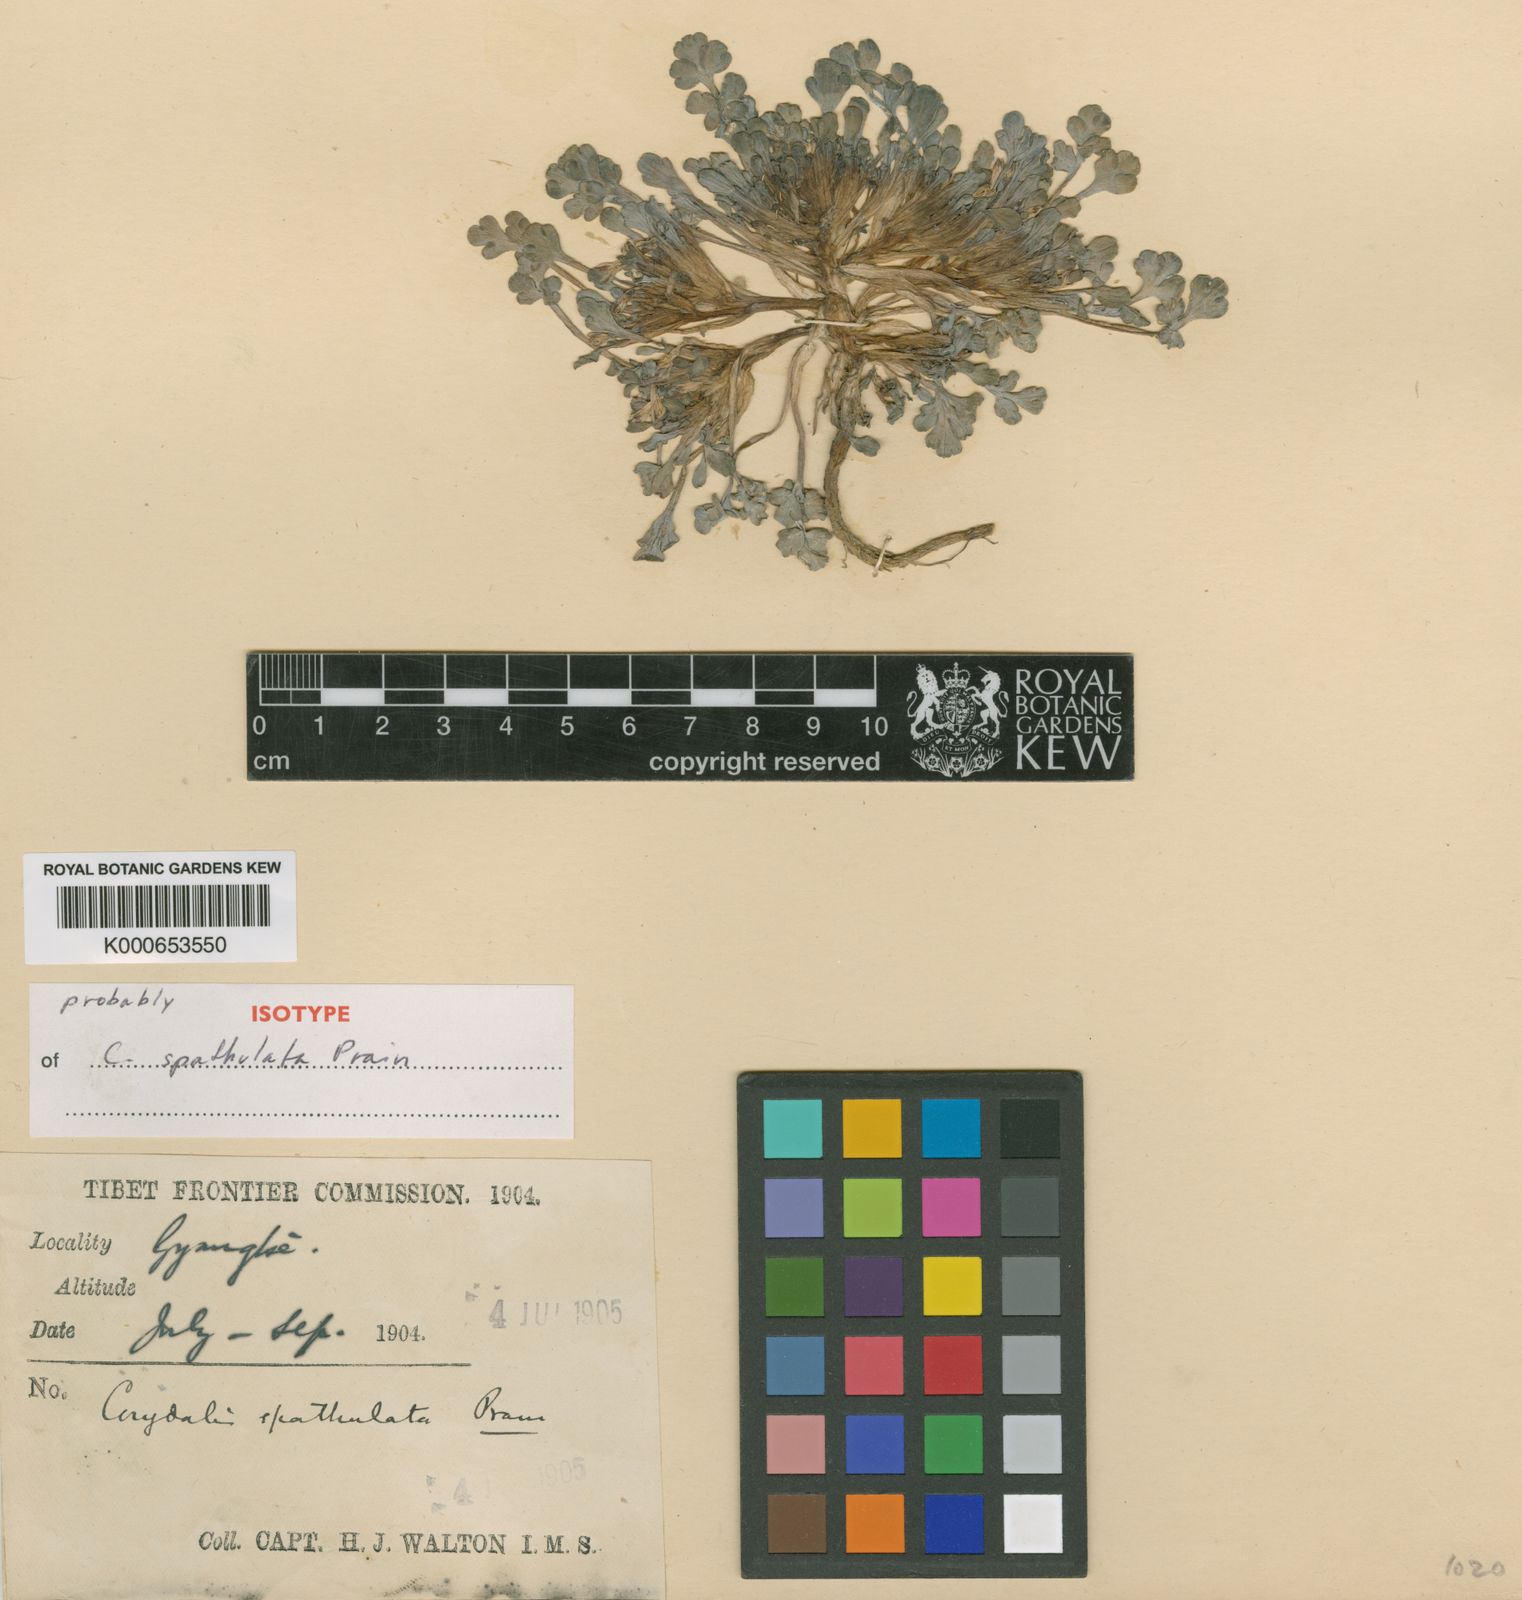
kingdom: Plantae
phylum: Tracheophyta
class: Magnoliopsida
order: Ranunculales
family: Papaveraceae
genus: Corydalis
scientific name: Corydalis spathulata
